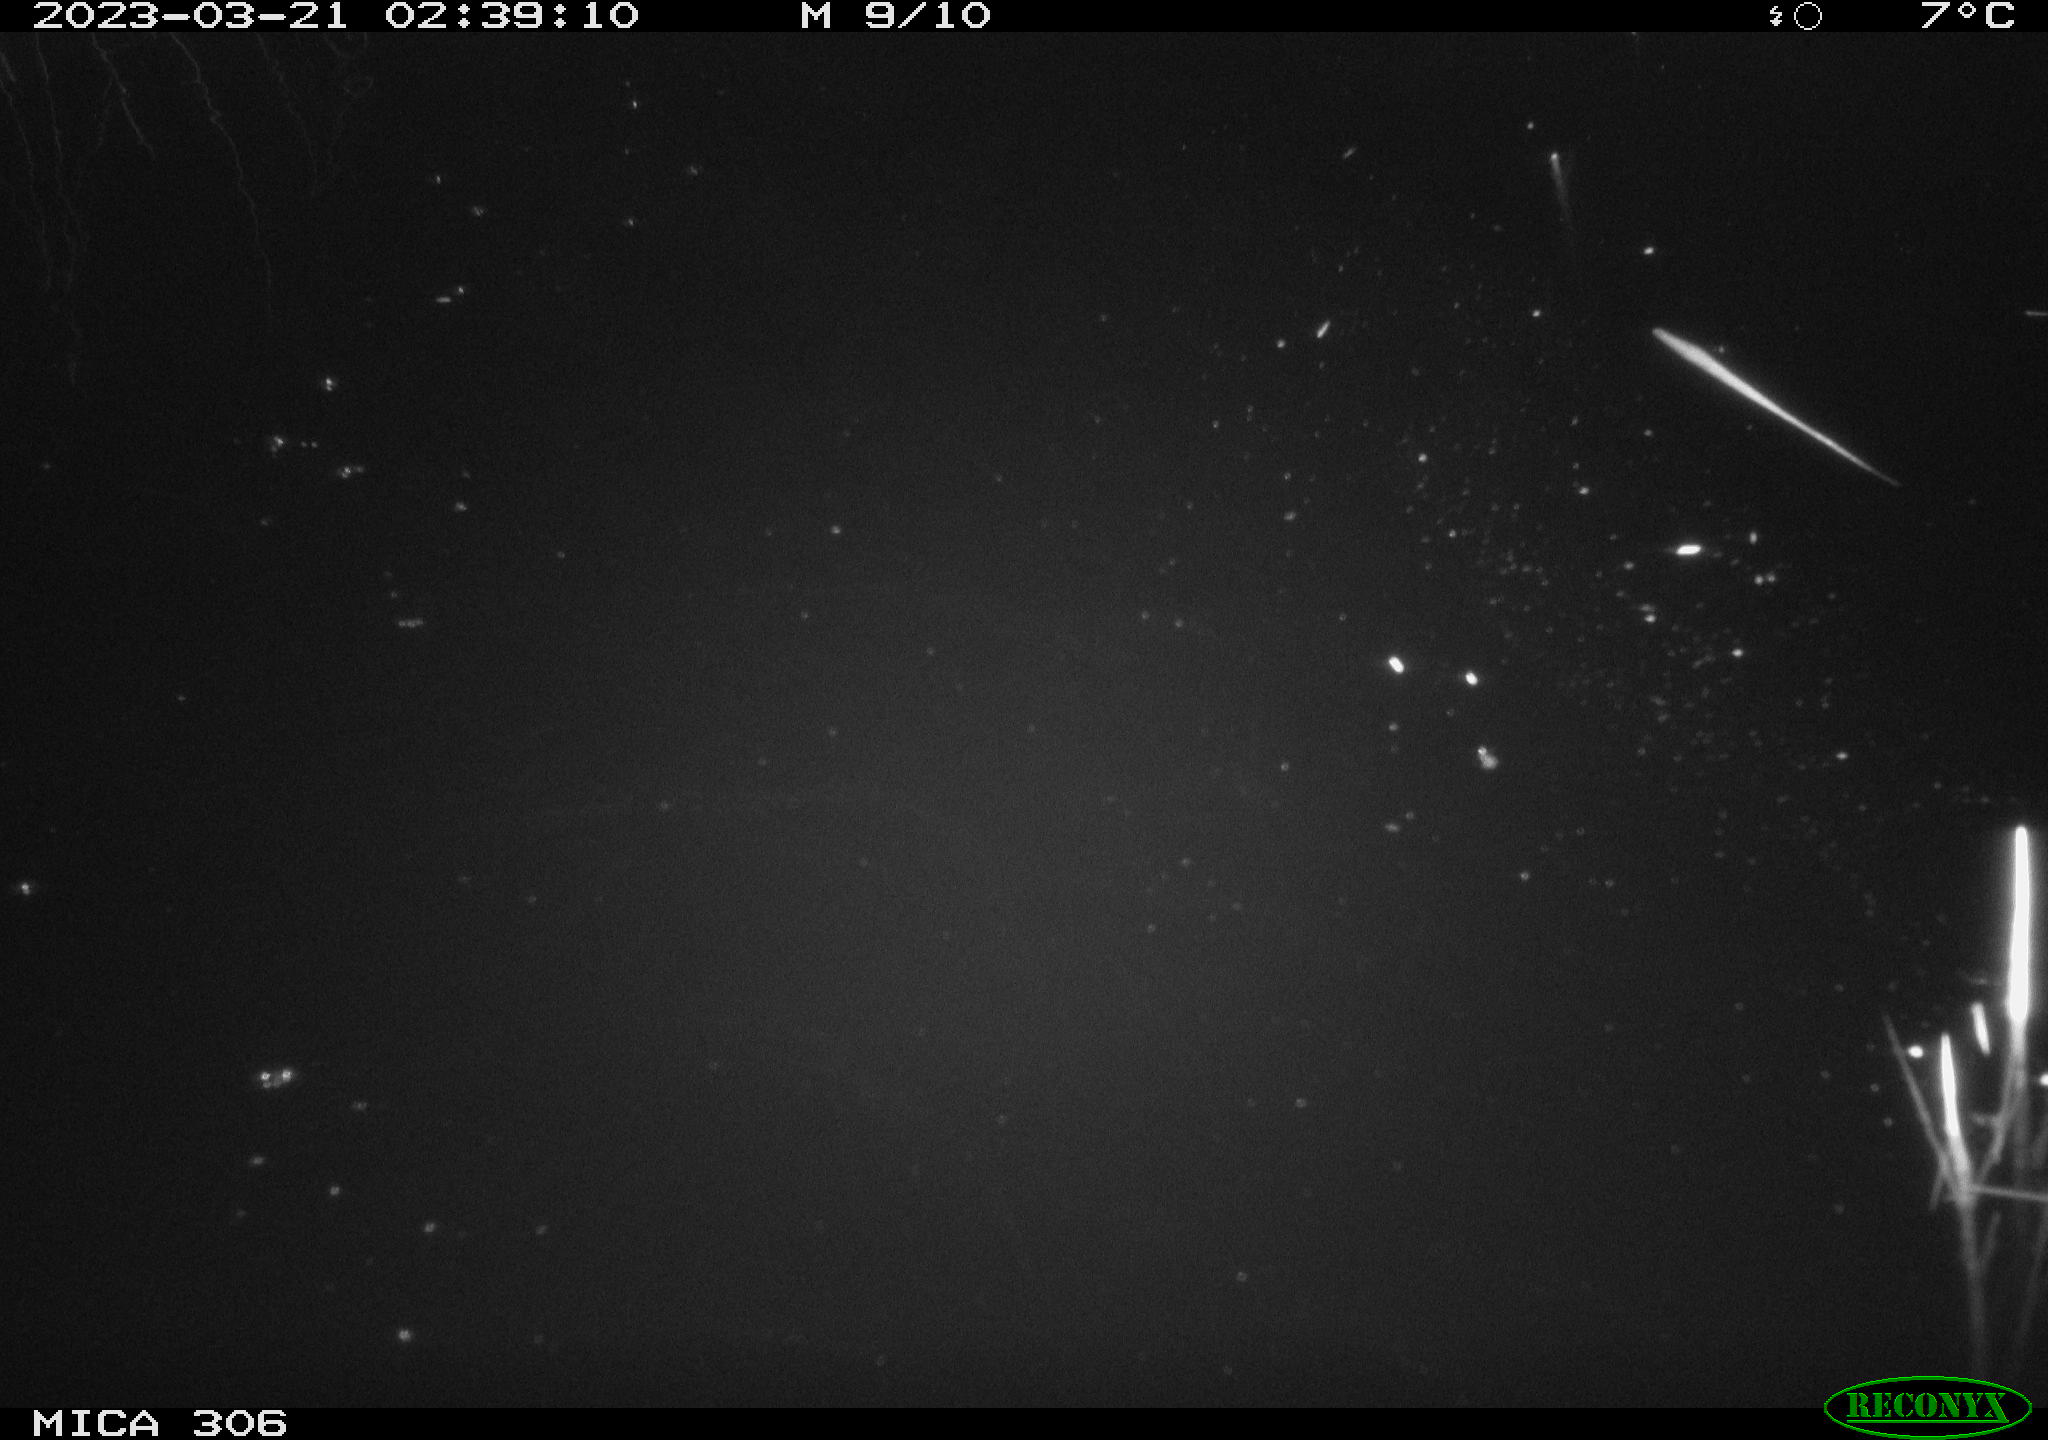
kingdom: Animalia
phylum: Chordata
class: Mammalia
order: Rodentia
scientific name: Rodentia
